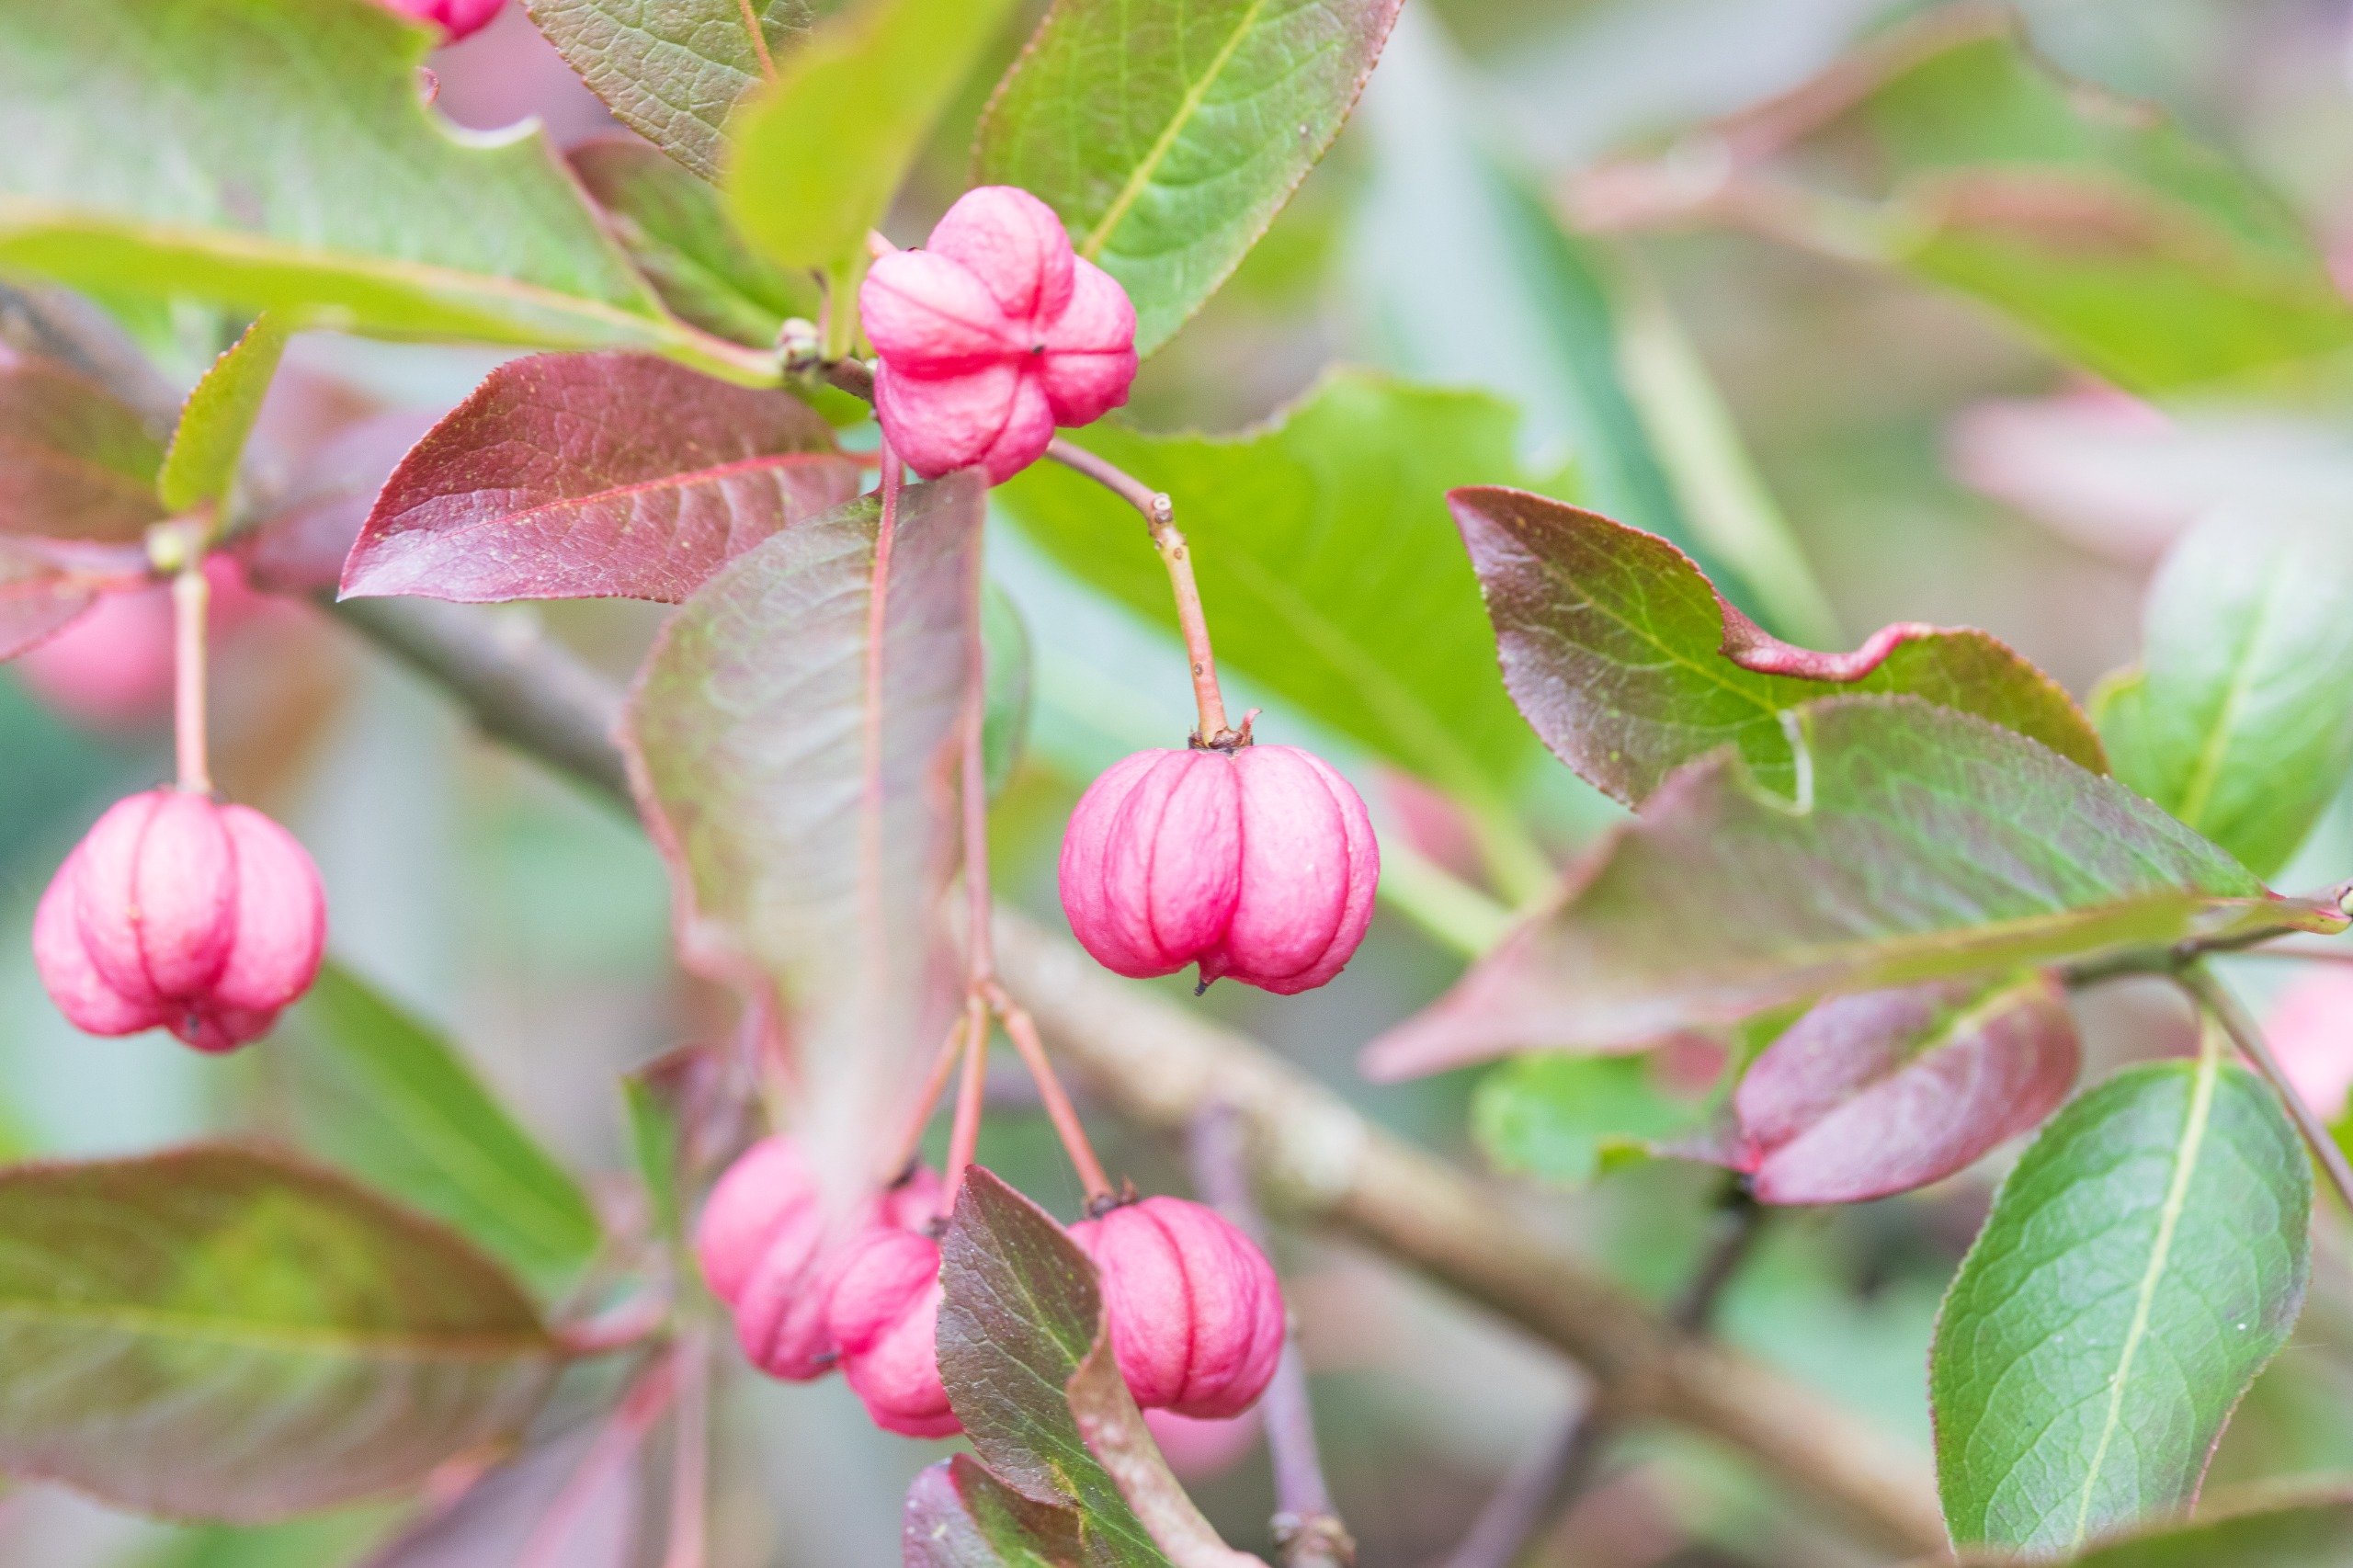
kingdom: Plantae
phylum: Tracheophyta
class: Magnoliopsida
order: Celastrales
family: Celastraceae
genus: Euonymus
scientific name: Euonymus europaeus
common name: Benved
